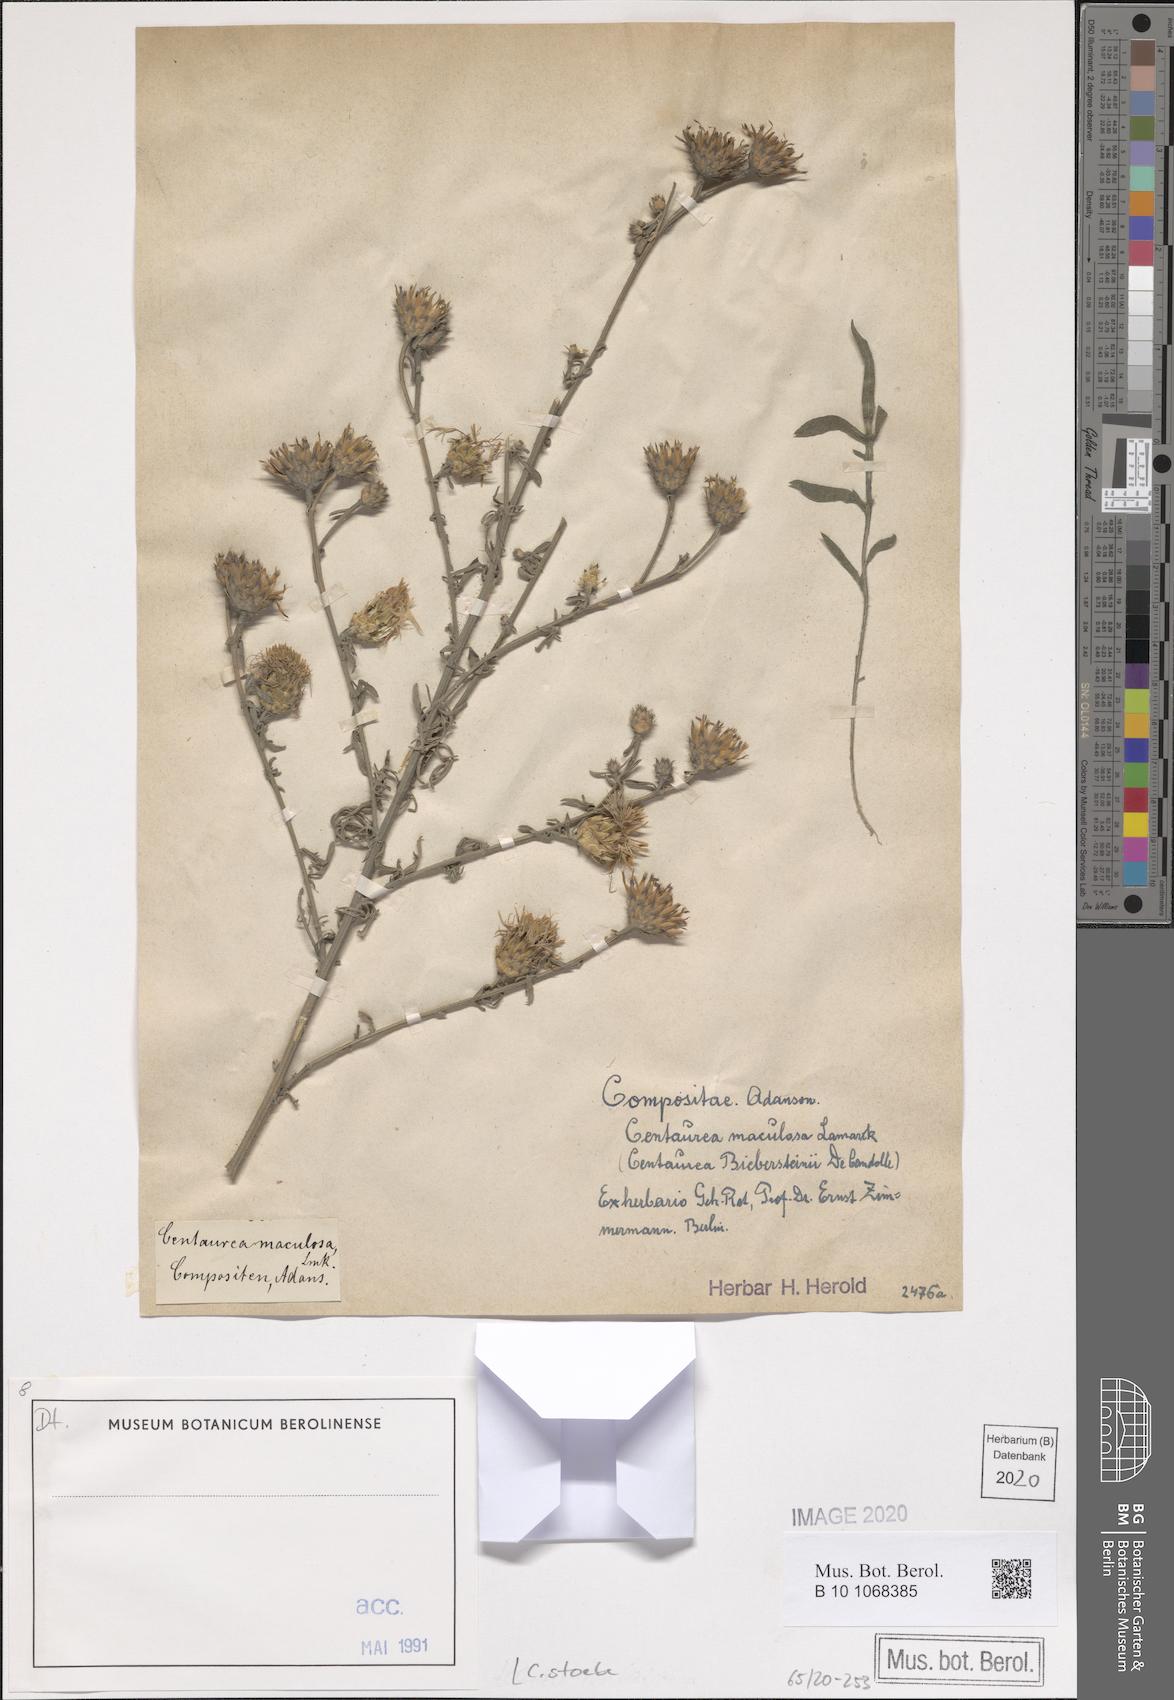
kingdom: Plantae
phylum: Tracheophyta
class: Magnoliopsida
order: Asterales
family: Asteraceae
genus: Centaurea
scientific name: Centaurea stoebe
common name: Spotted knapweed
